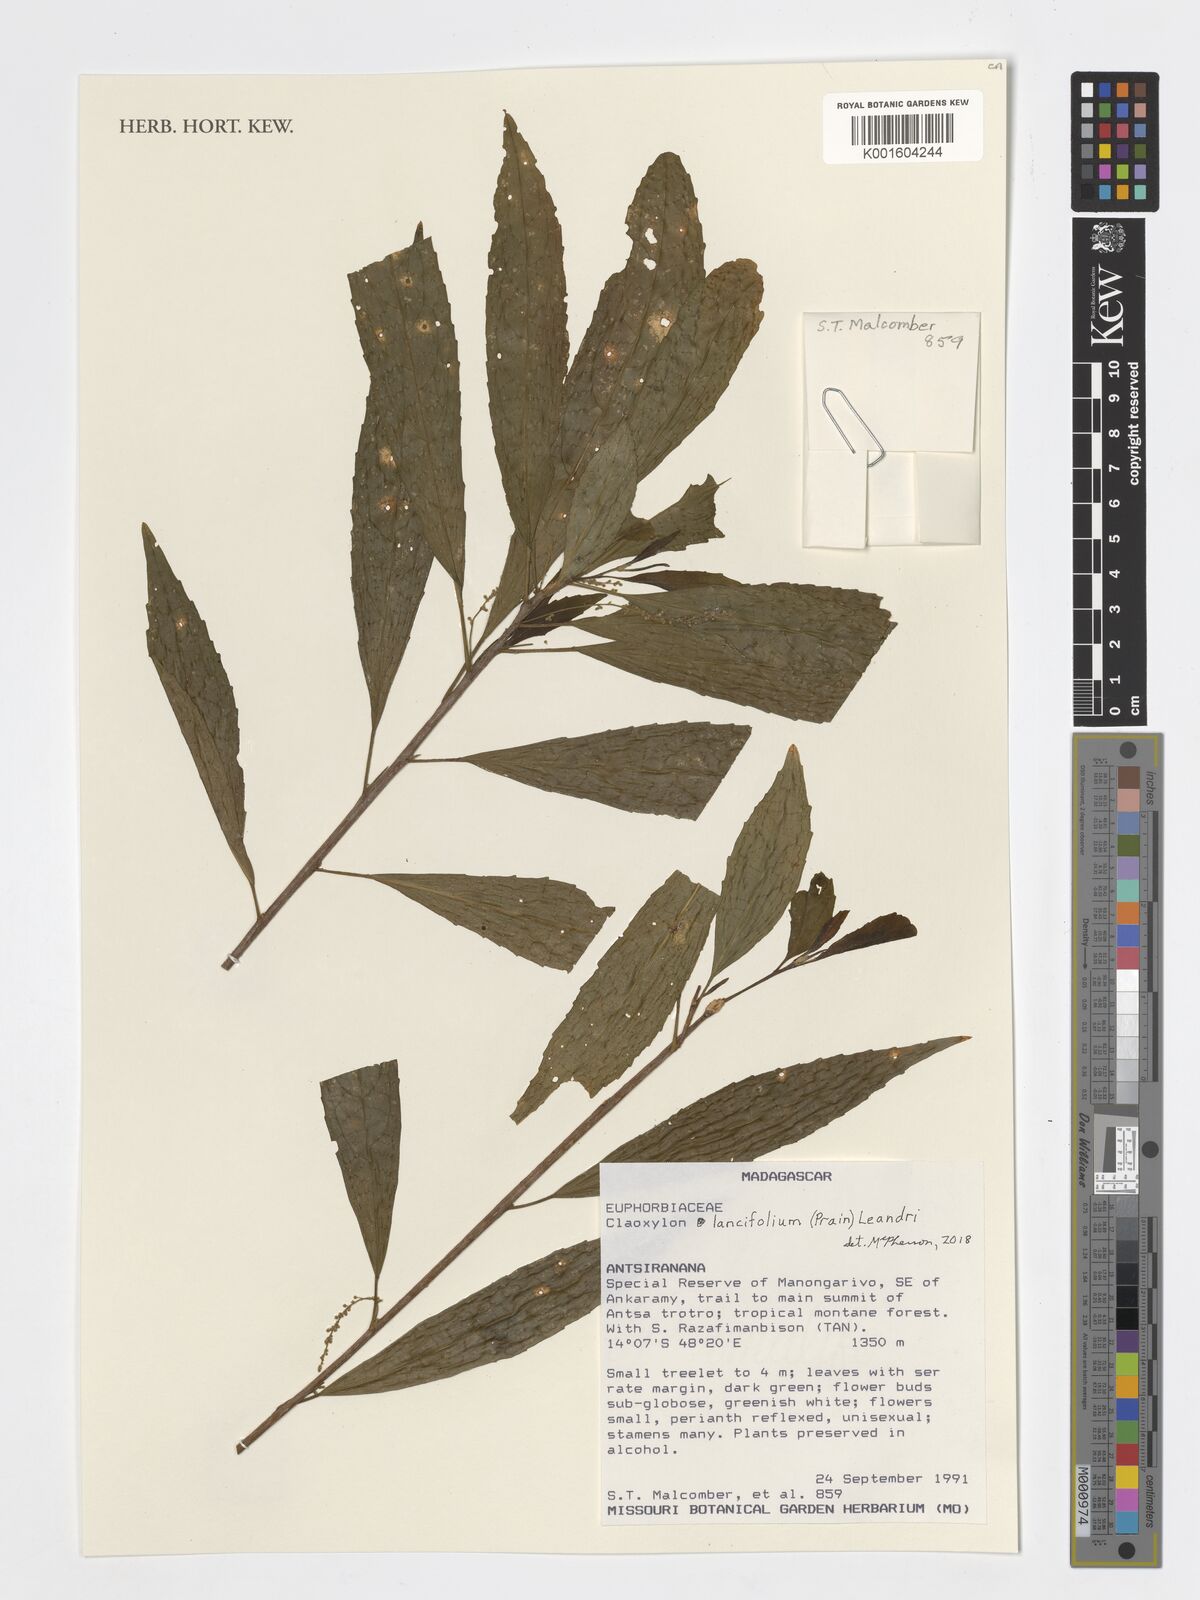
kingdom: Plantae
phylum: Tracheophyta
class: Magnoliopsida
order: Malpighiales
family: Euphorbiaceae
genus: Micrococca
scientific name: Micrococca lancifolia
